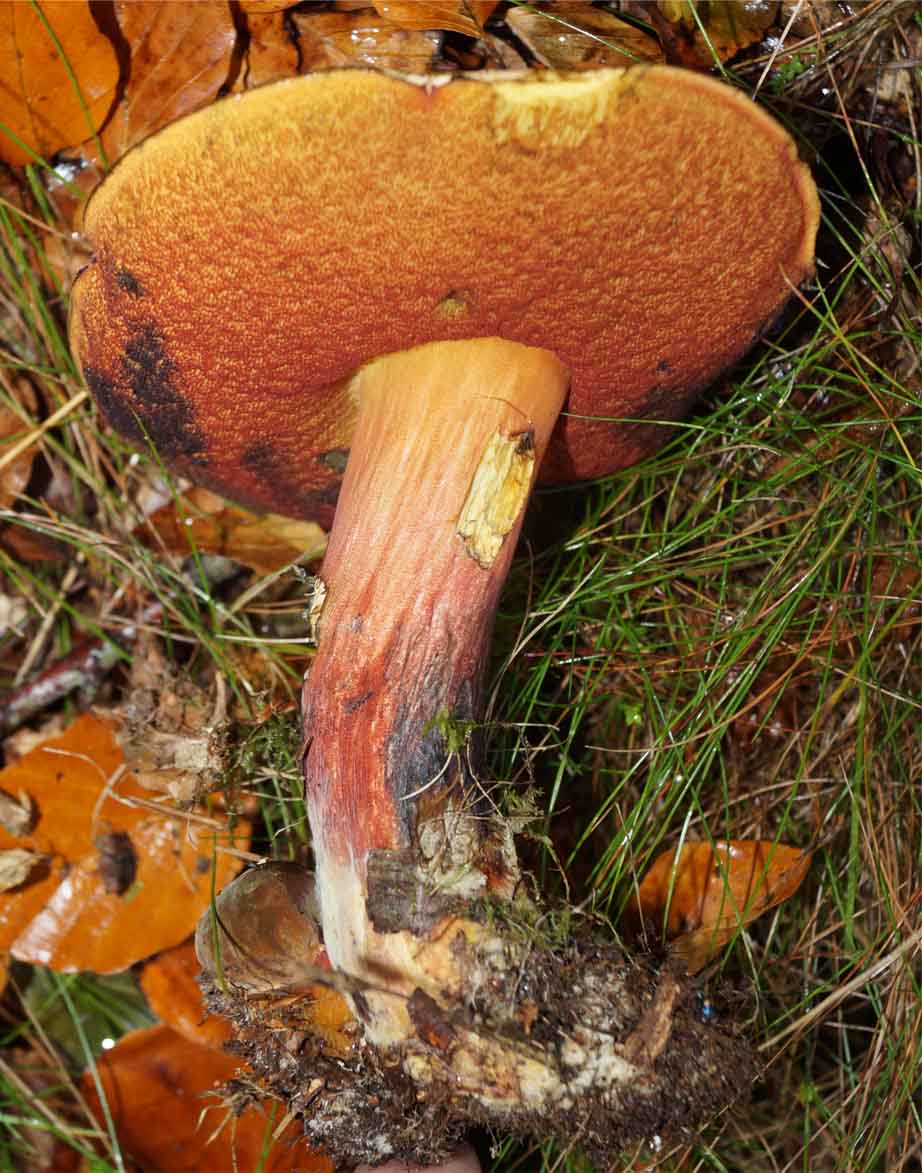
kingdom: Fungi
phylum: Basidiomycota
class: Agaricomycetes
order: Boletales
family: Boletaceae
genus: Neoboletus
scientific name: Neoboletus erythropus
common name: punktstokket indigorørhat
